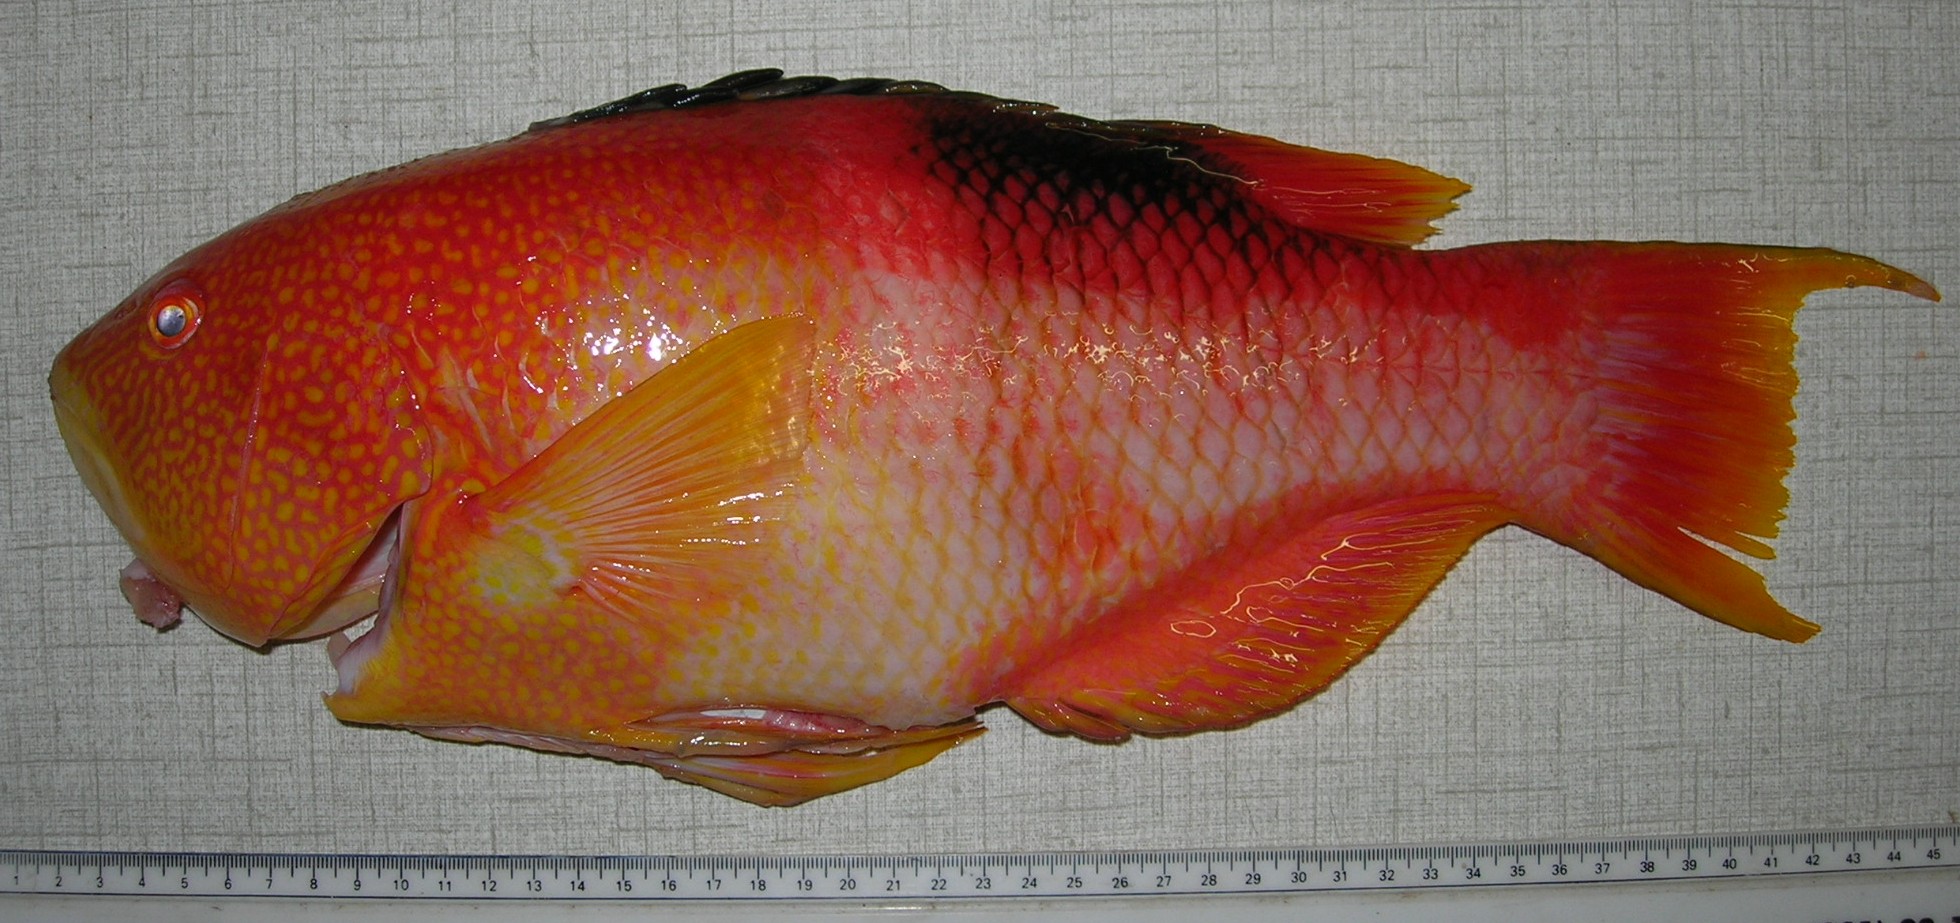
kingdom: Animalia
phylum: Chordata
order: Perciformes
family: Labridae
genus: Bodianus
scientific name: Bodianus atrolumbus
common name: Palebar hogfish
